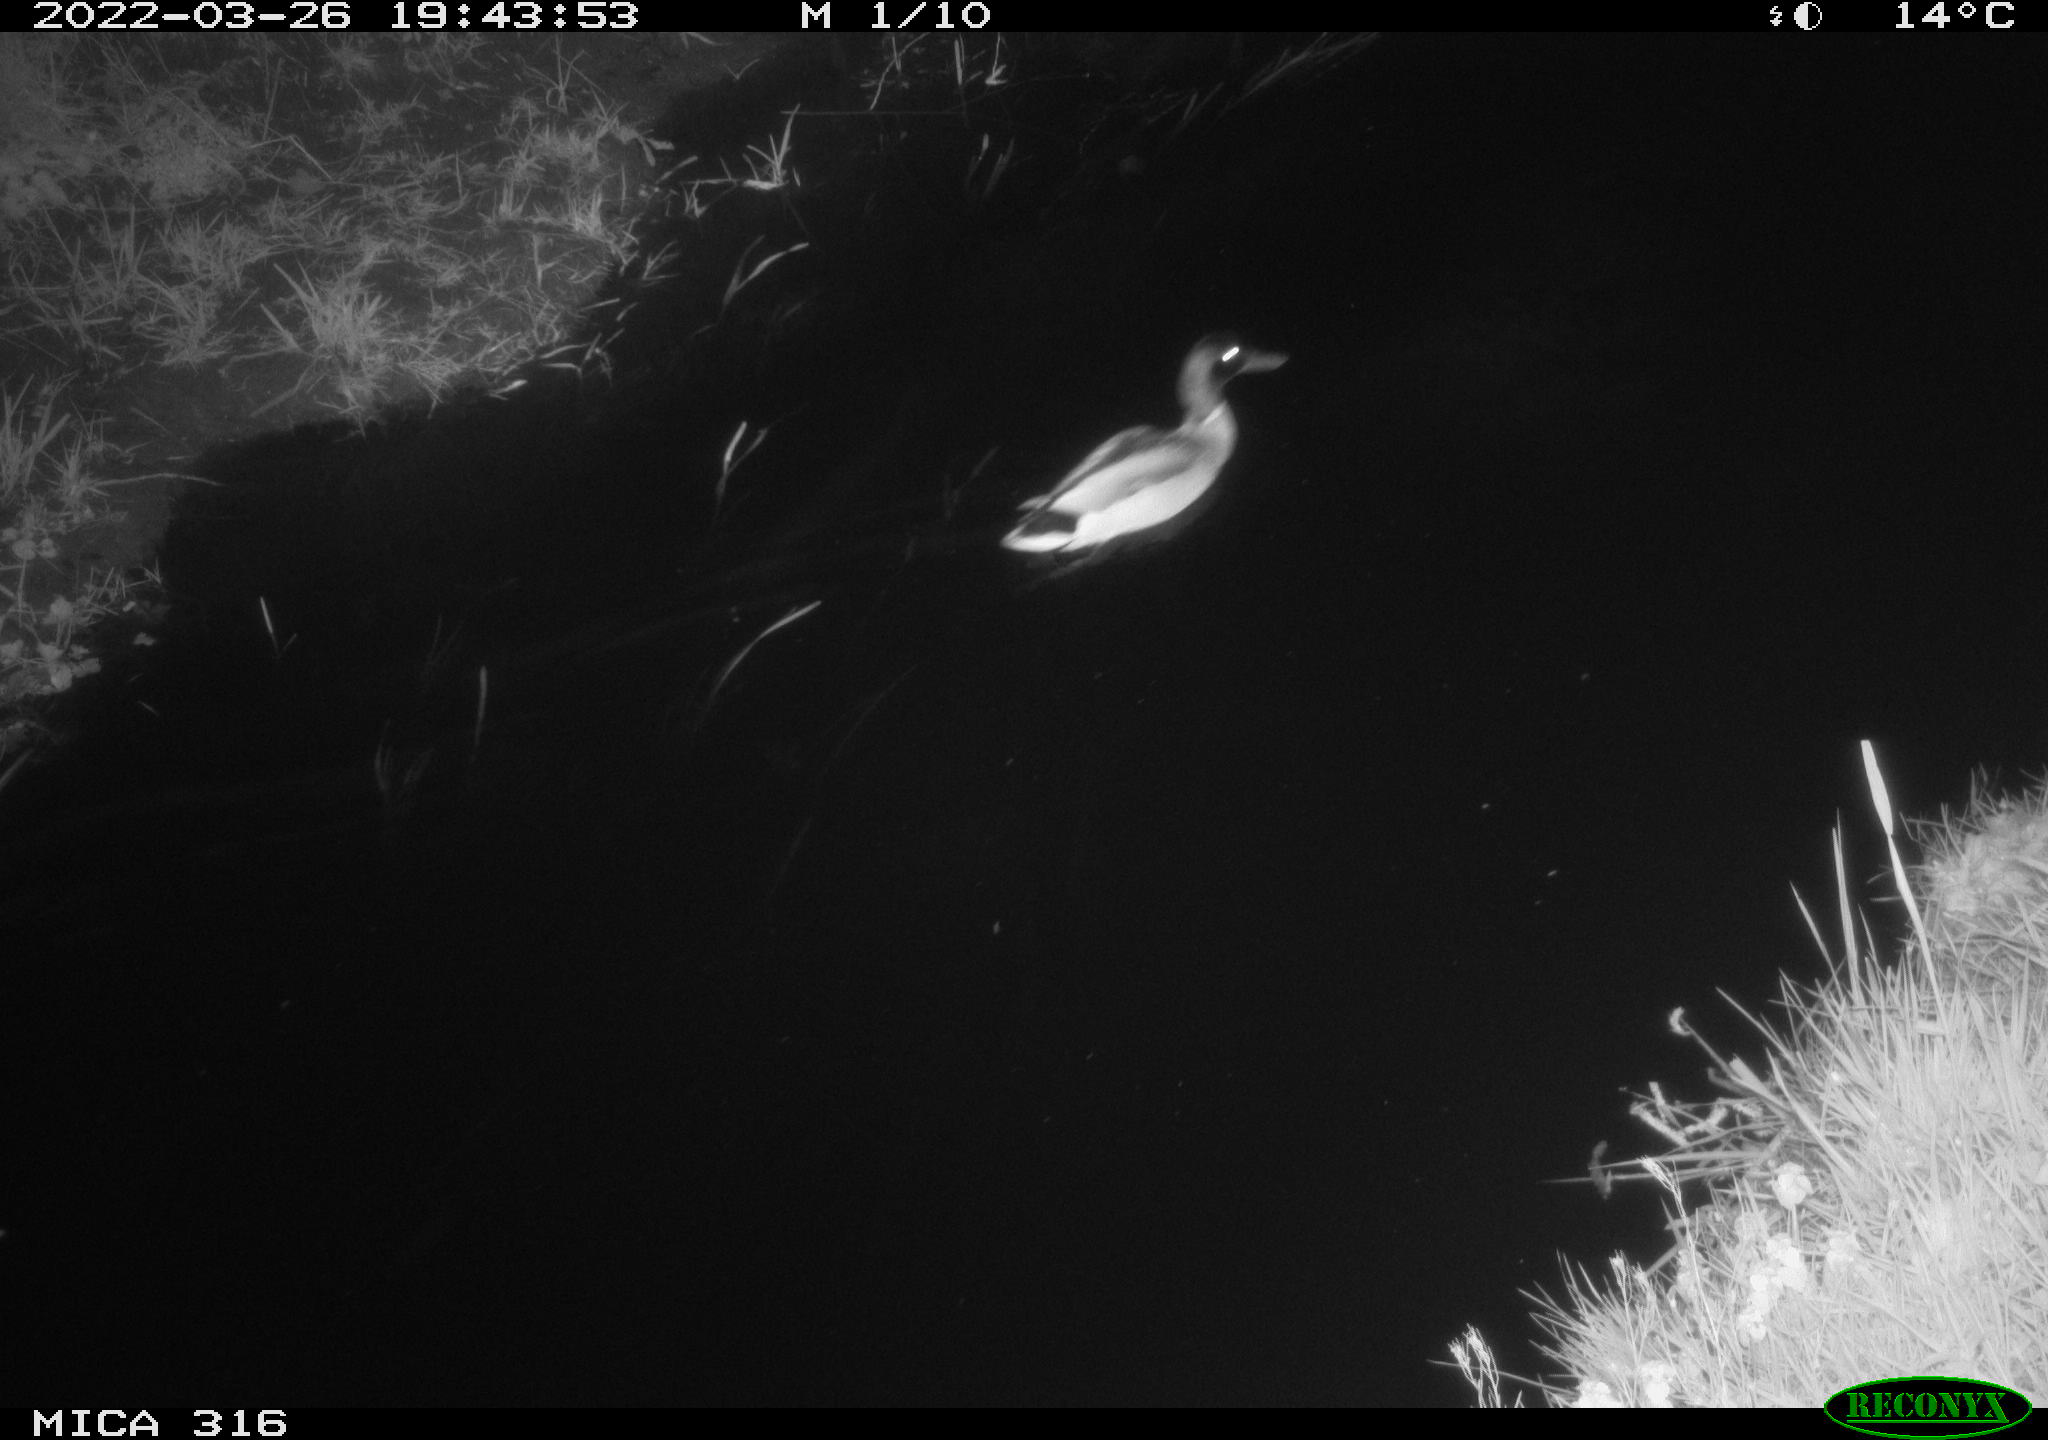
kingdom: Animalia
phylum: Chordata
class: Aves
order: Anseriformes
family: Anatidae
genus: Anas
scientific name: Anas platyrhynchos
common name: Mallard
